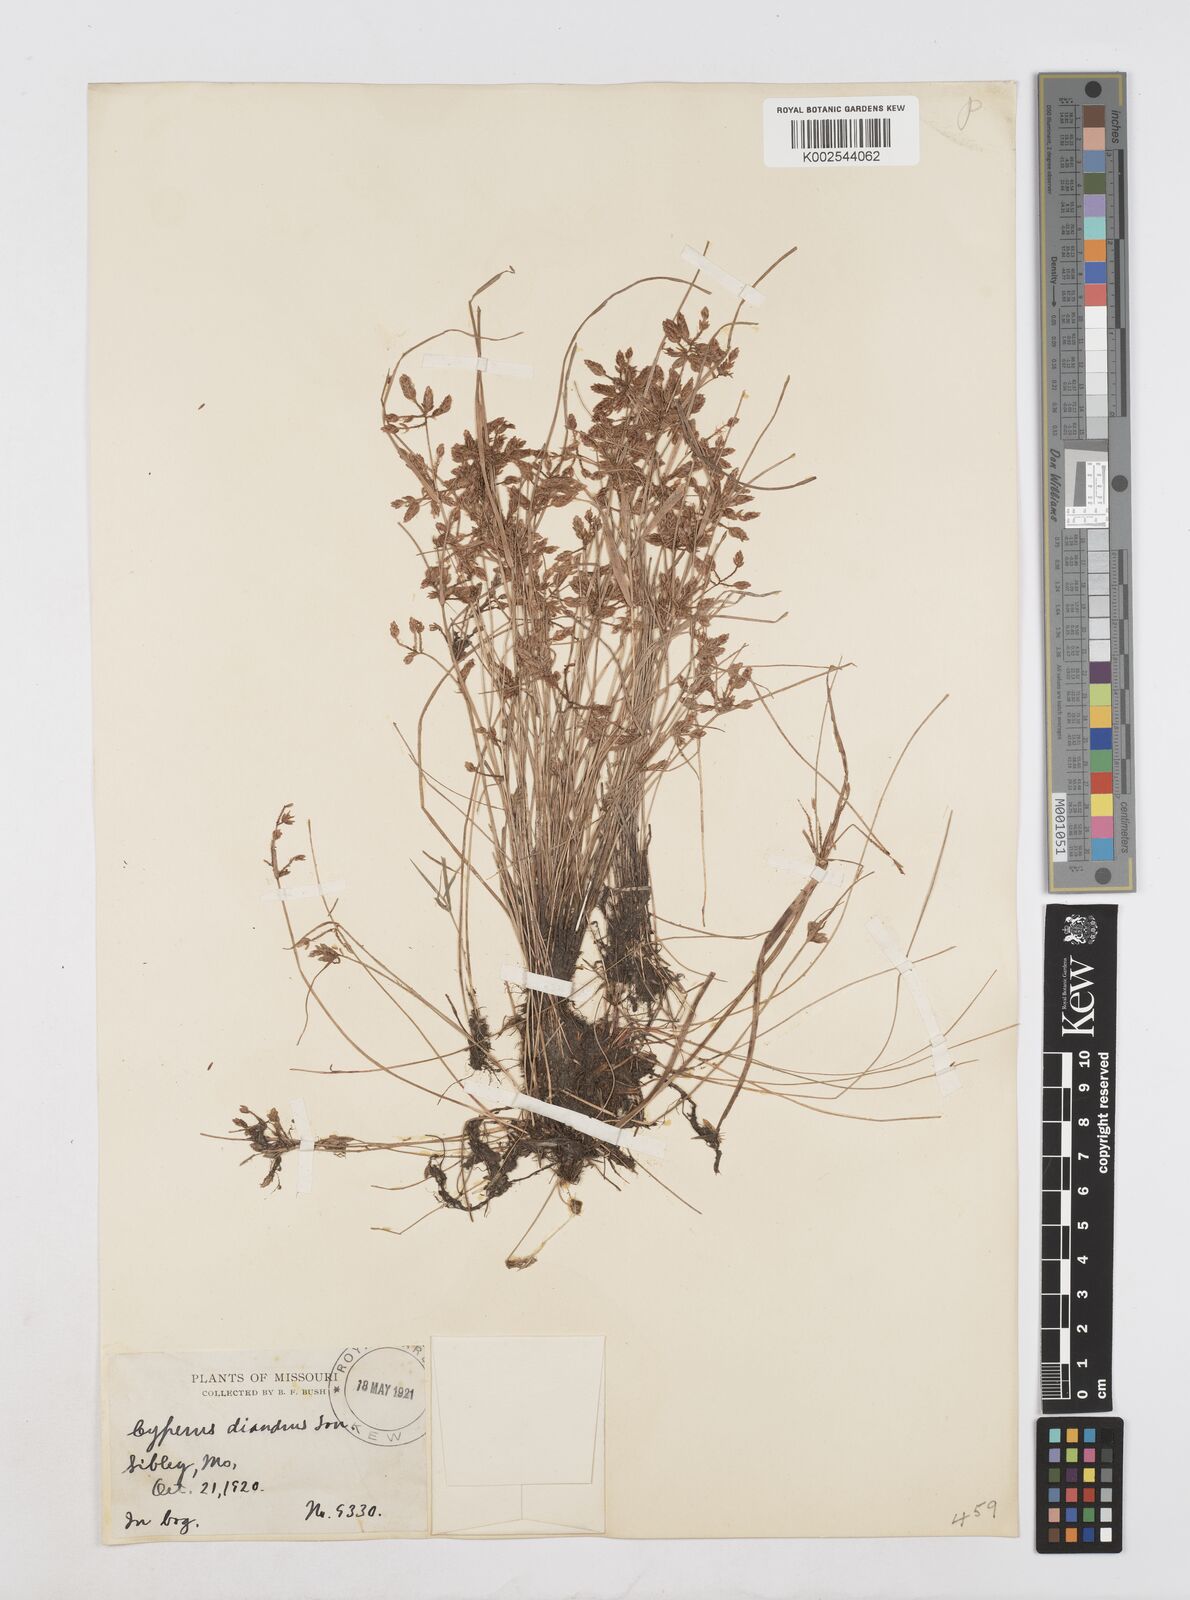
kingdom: Plantae
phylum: Tracheophyta
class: Liliopsida
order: Poales
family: Cyperaceae
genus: Cyperus
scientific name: Cyperus diandrus
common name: Low cyperus
